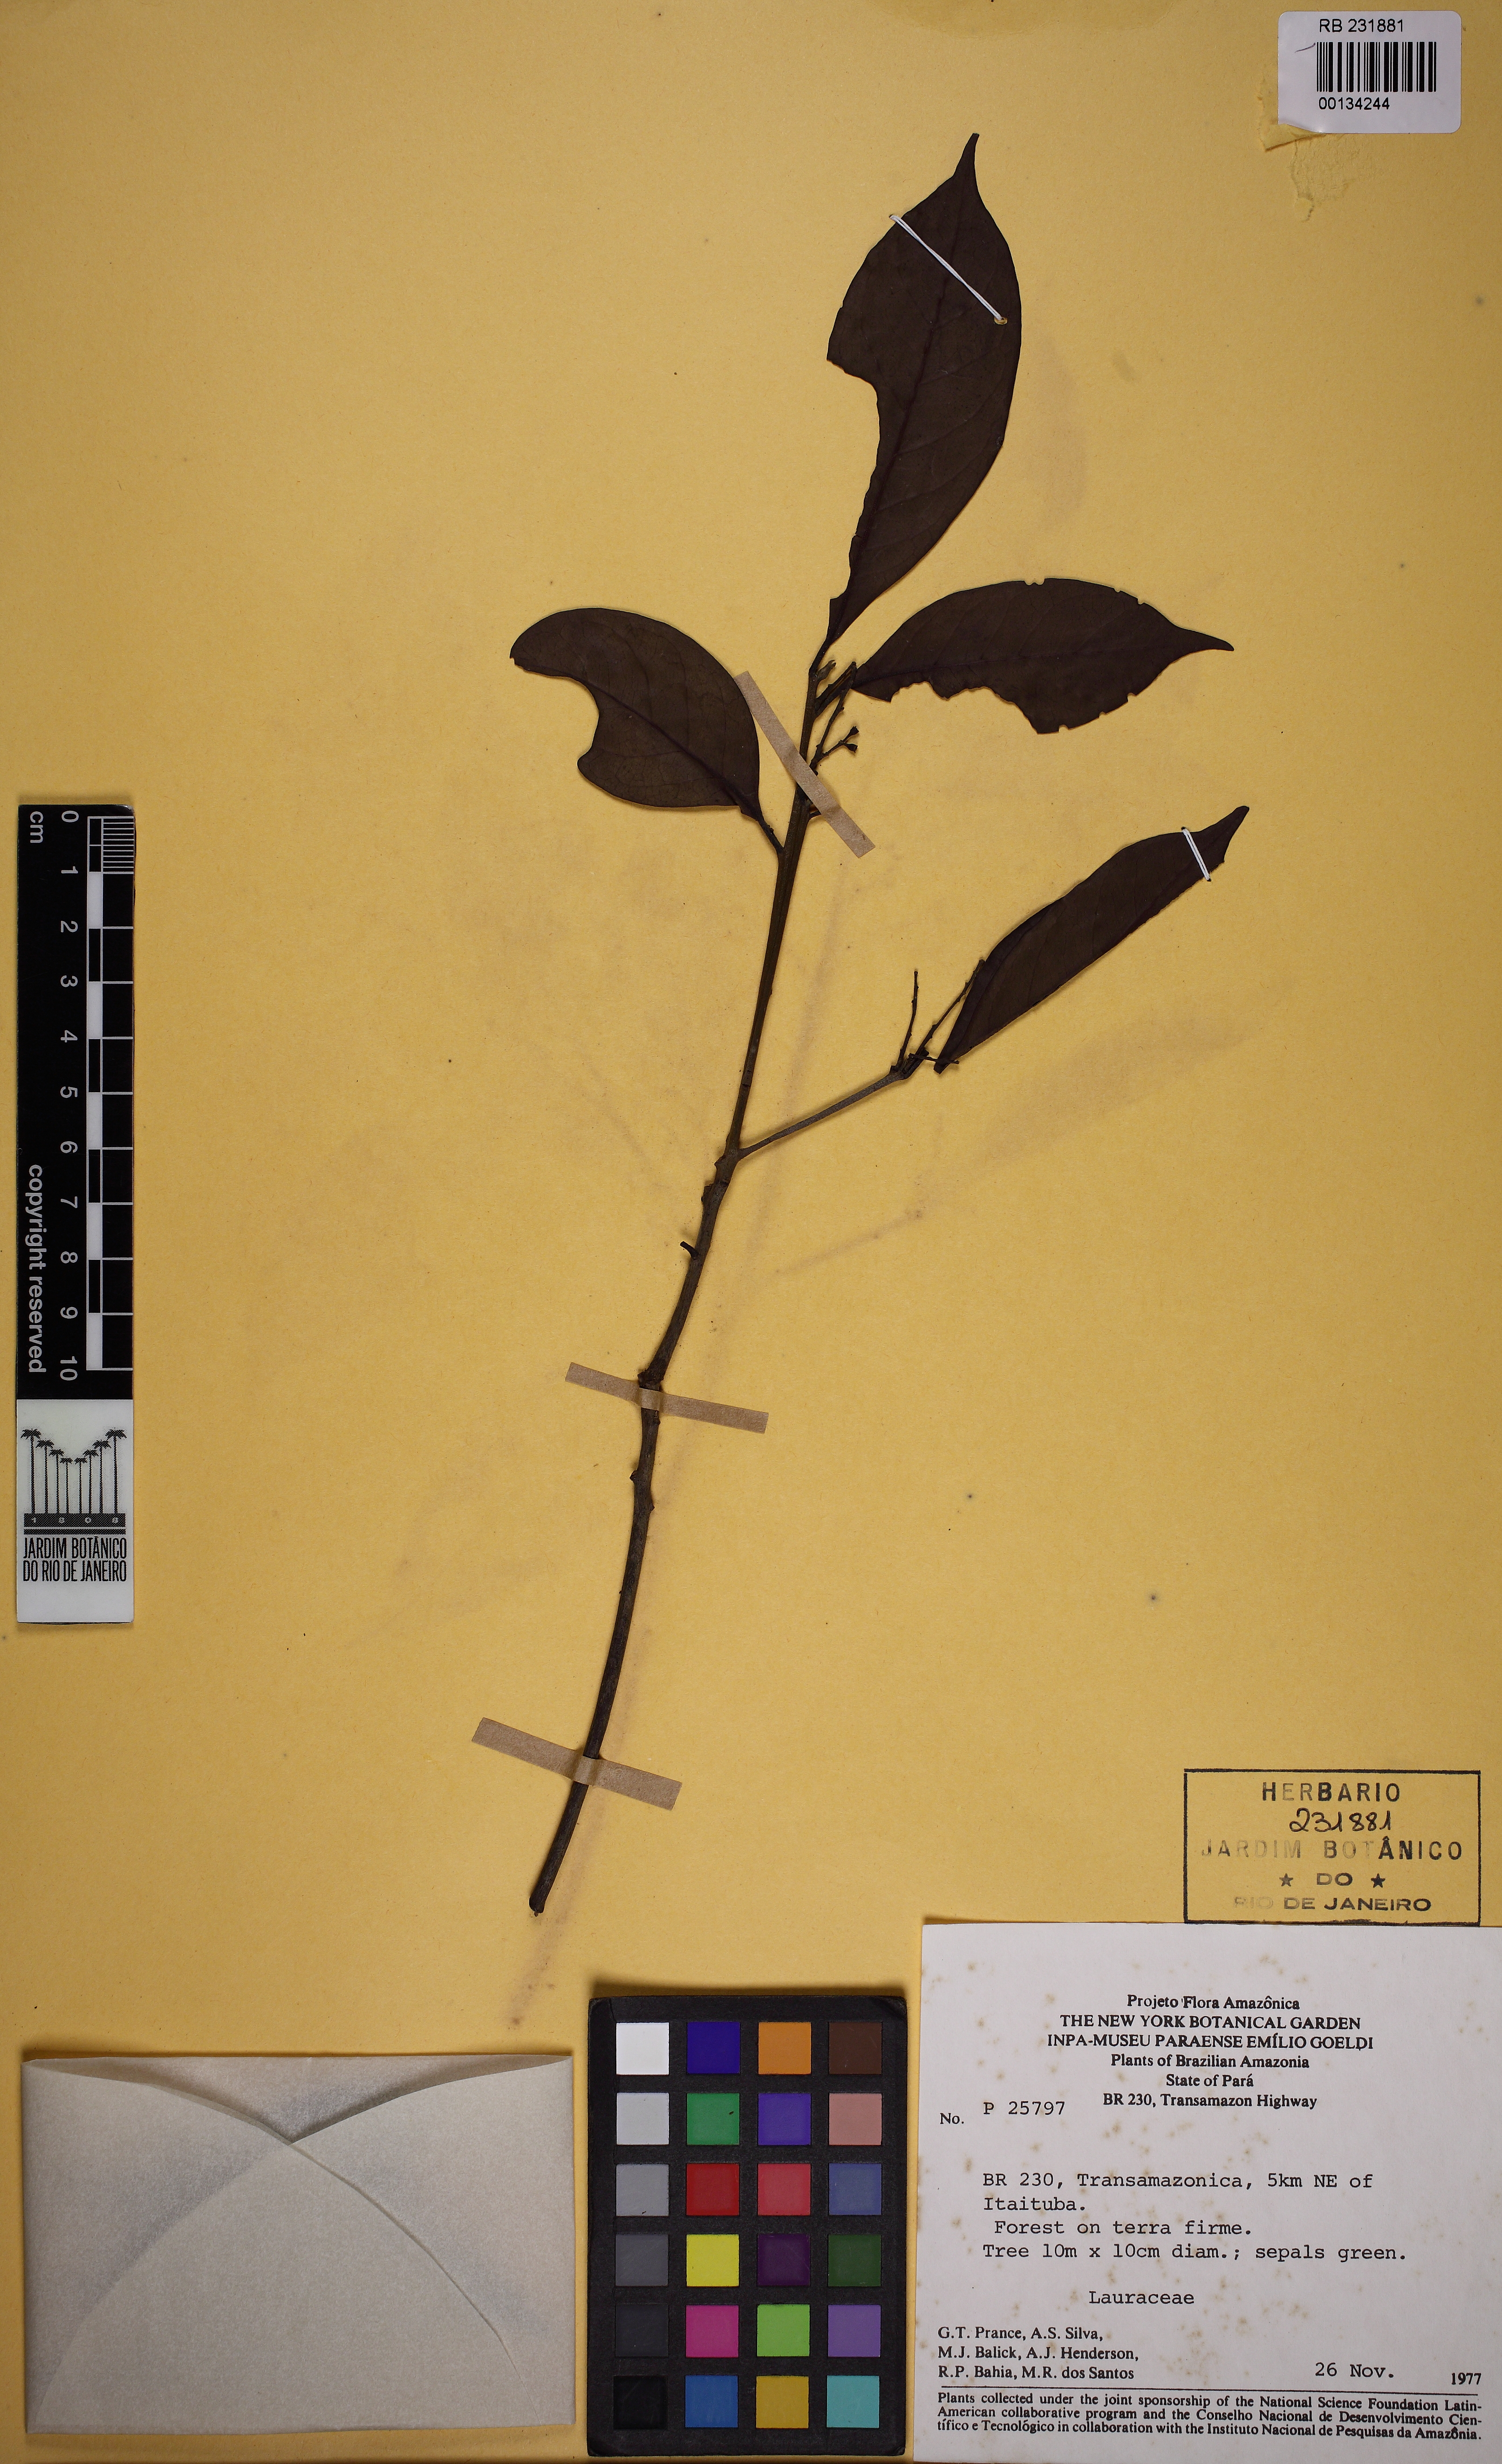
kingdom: Plantae
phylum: Tracheophyta
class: Magnoliopsida
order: Laurales
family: Lauraceae
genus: Ocotea
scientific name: Ocotea cujumary
